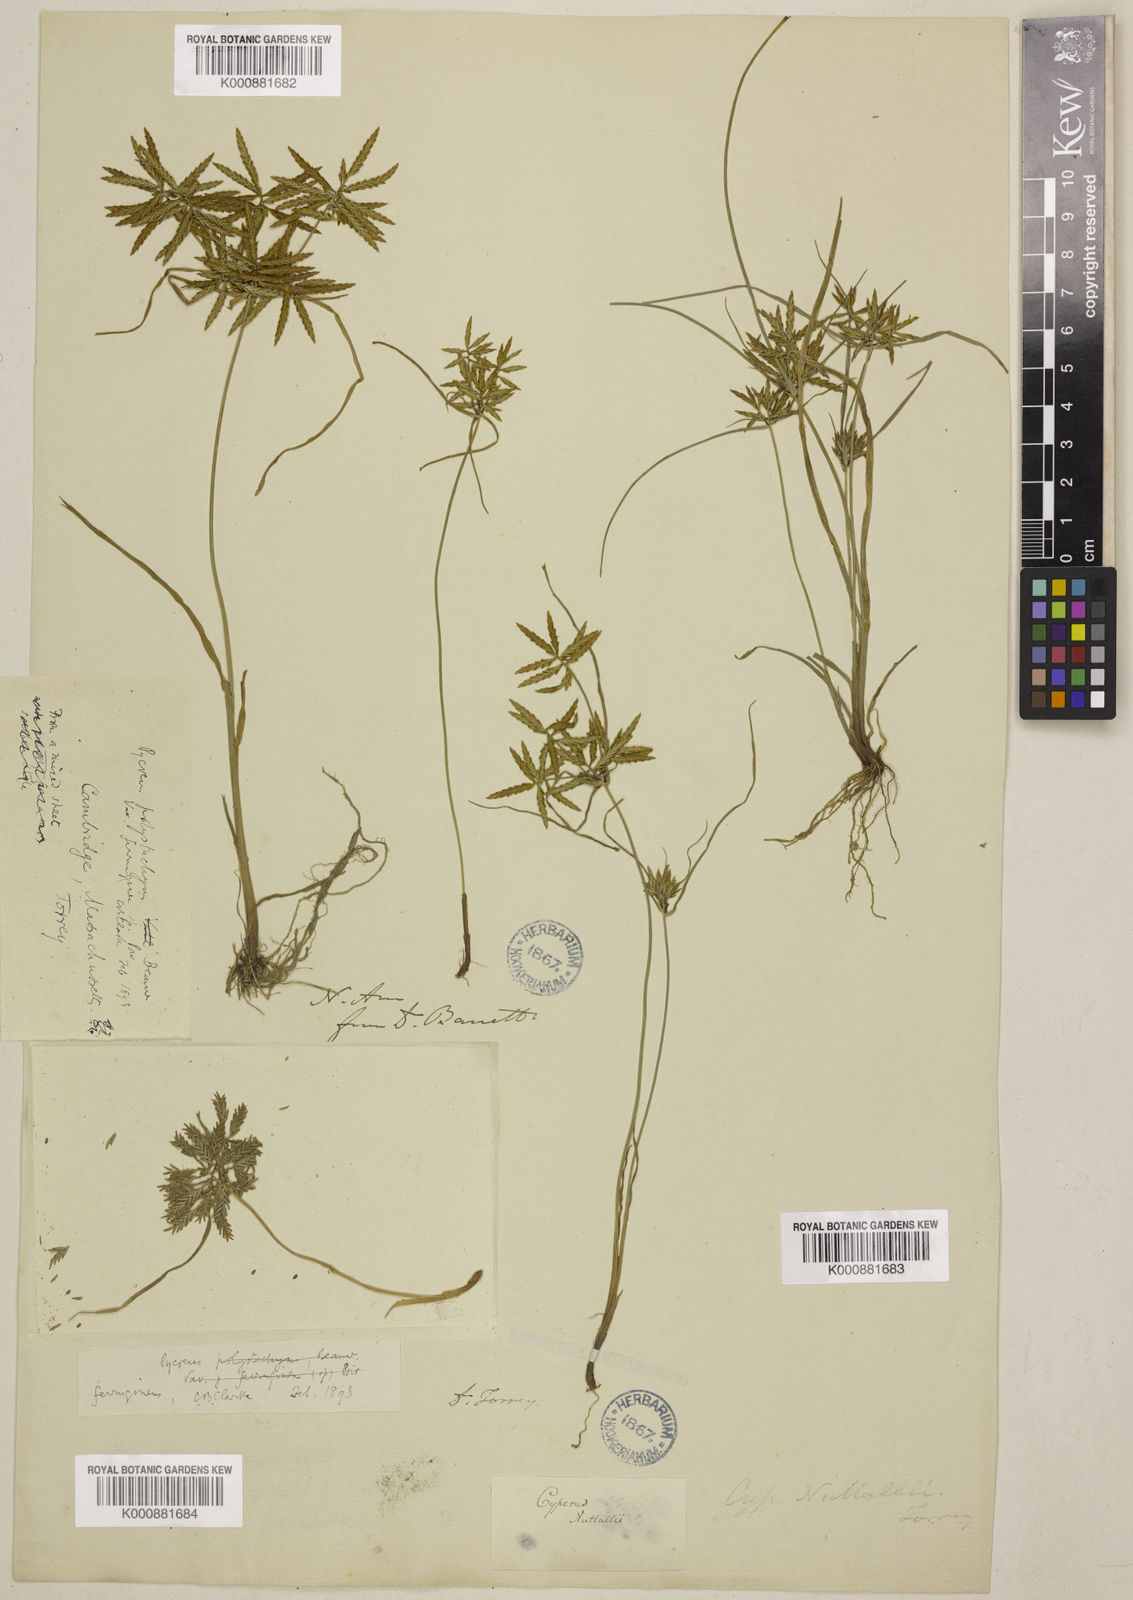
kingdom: Plantae
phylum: Tracheophyta
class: Liliopsida
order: Poales
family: Cyperaceae
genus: Cyperus
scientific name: Cyperus filicinus
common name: Fern flatsedge
